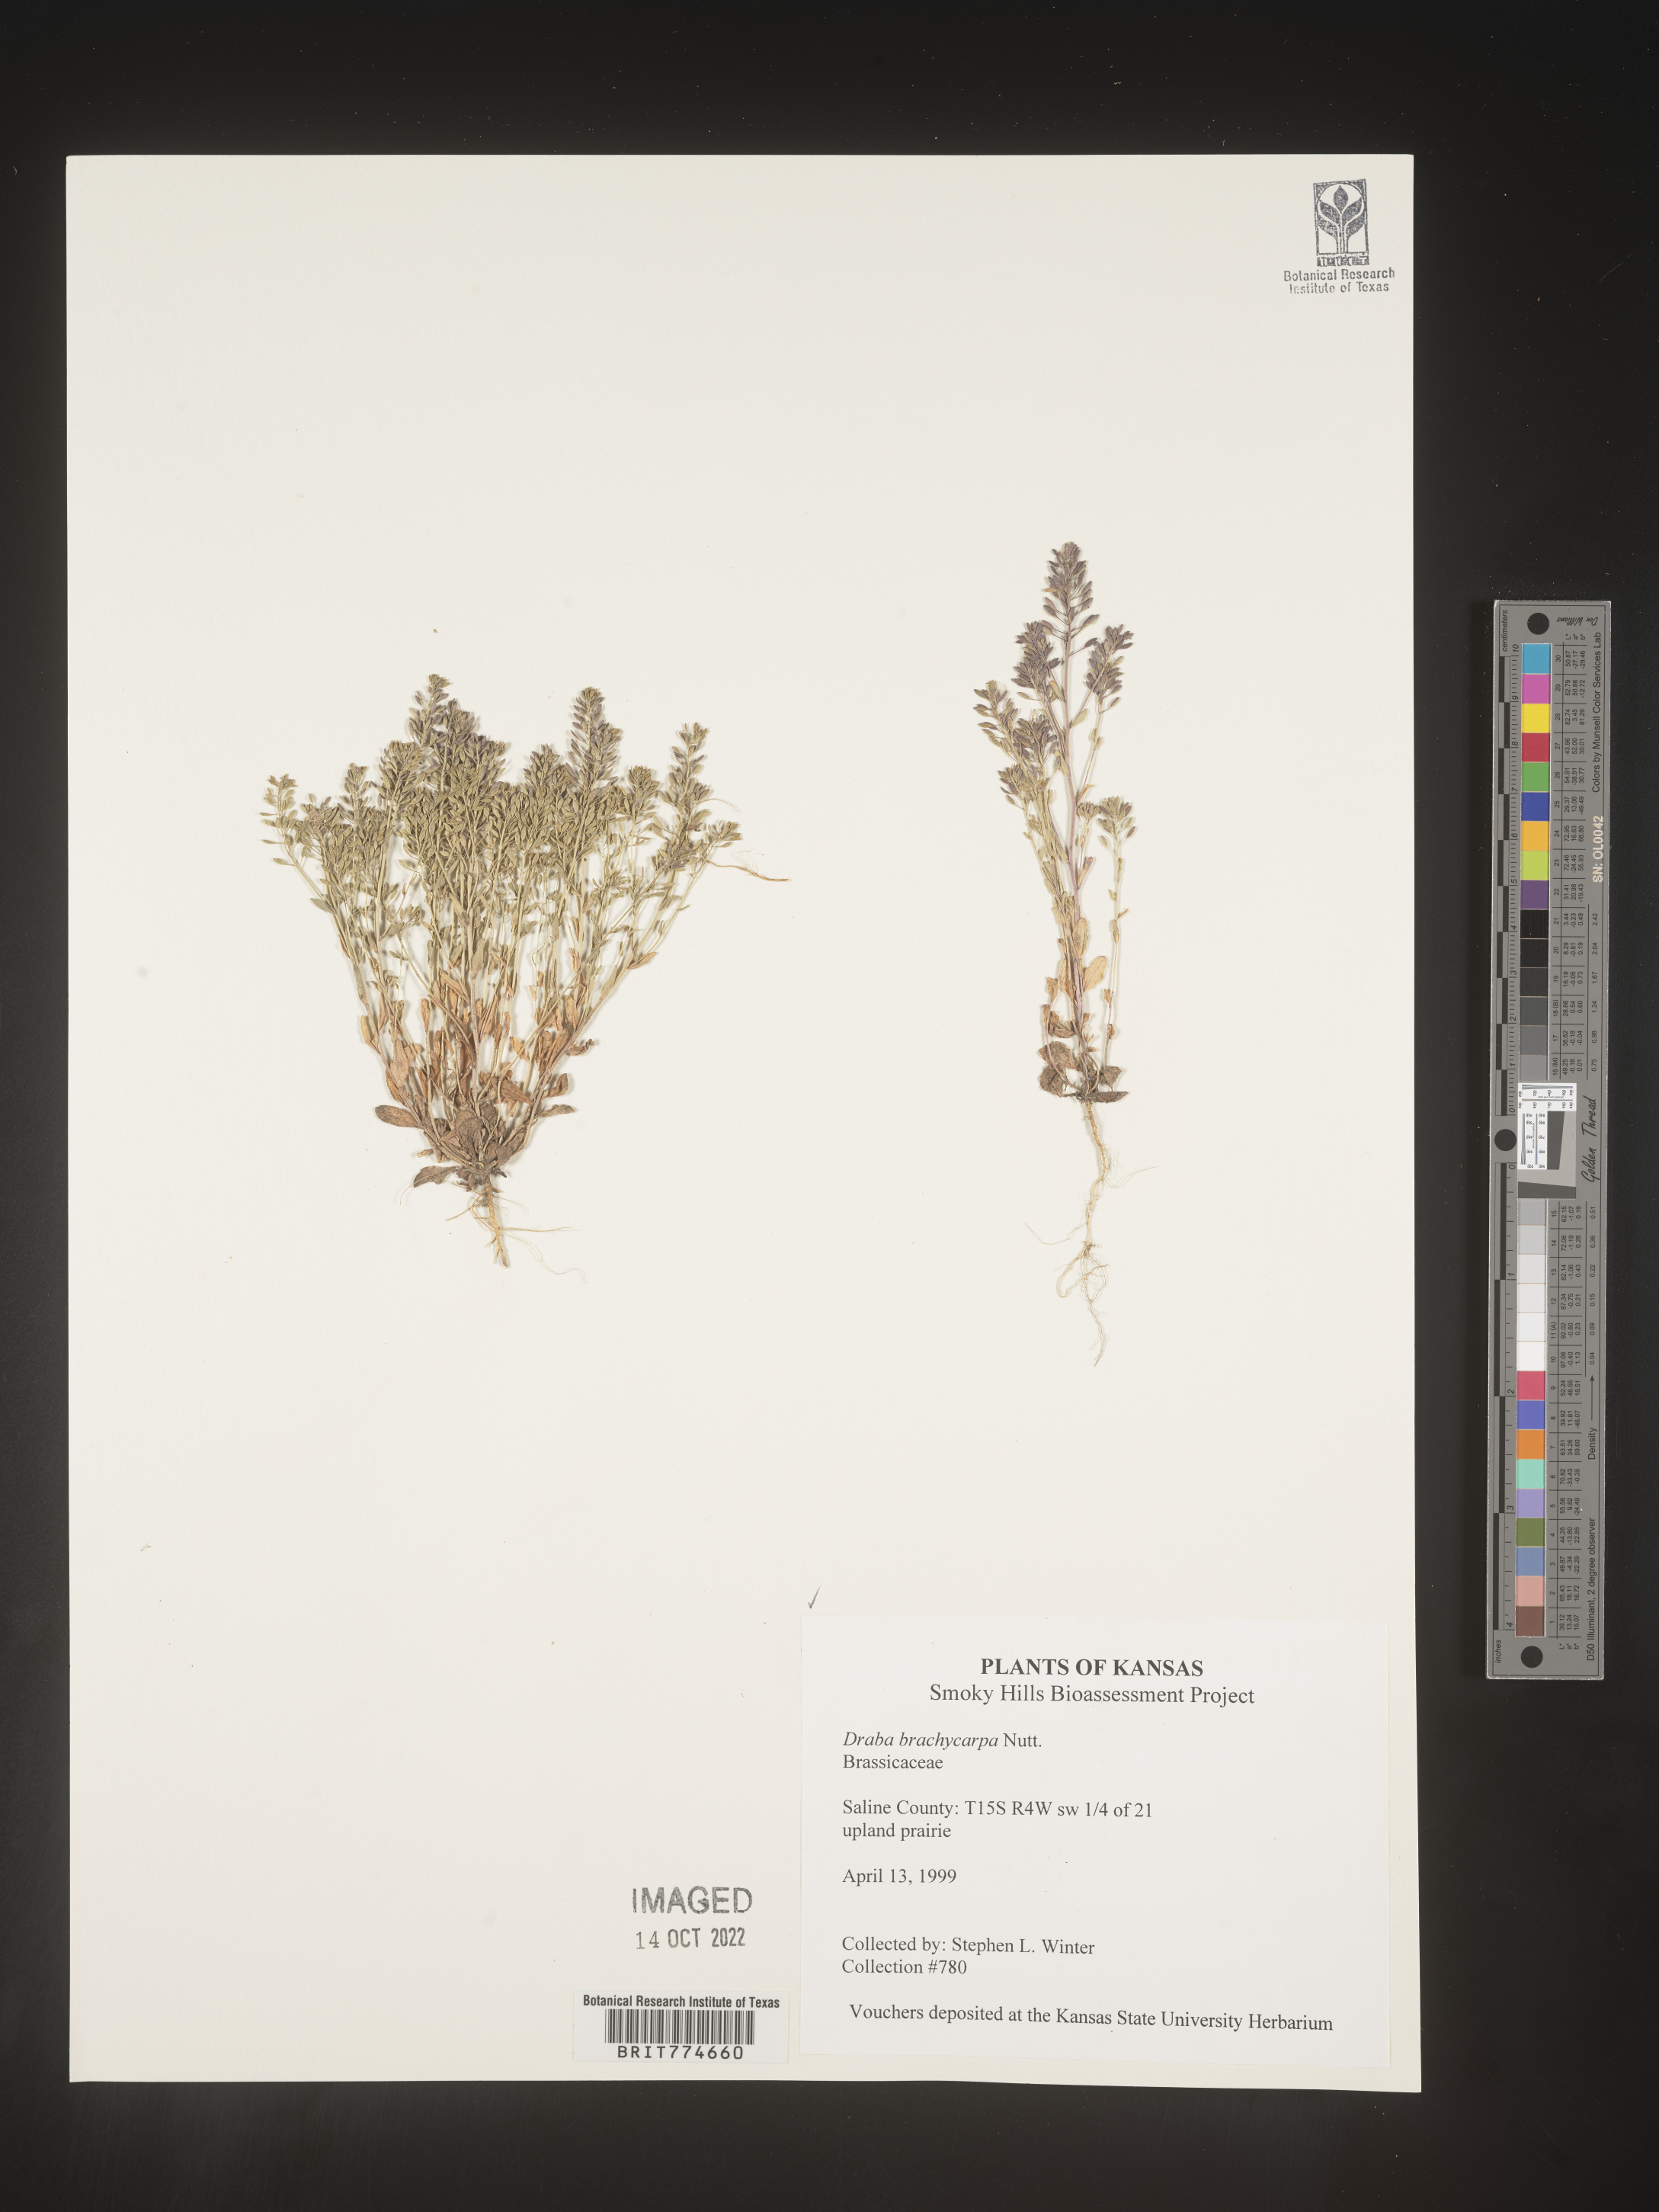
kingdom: Plantae
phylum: Tracheophyta
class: Magnoliopsida
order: Brassicales
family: Brassicaceae
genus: Abdra
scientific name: Abdra brachycarpa
